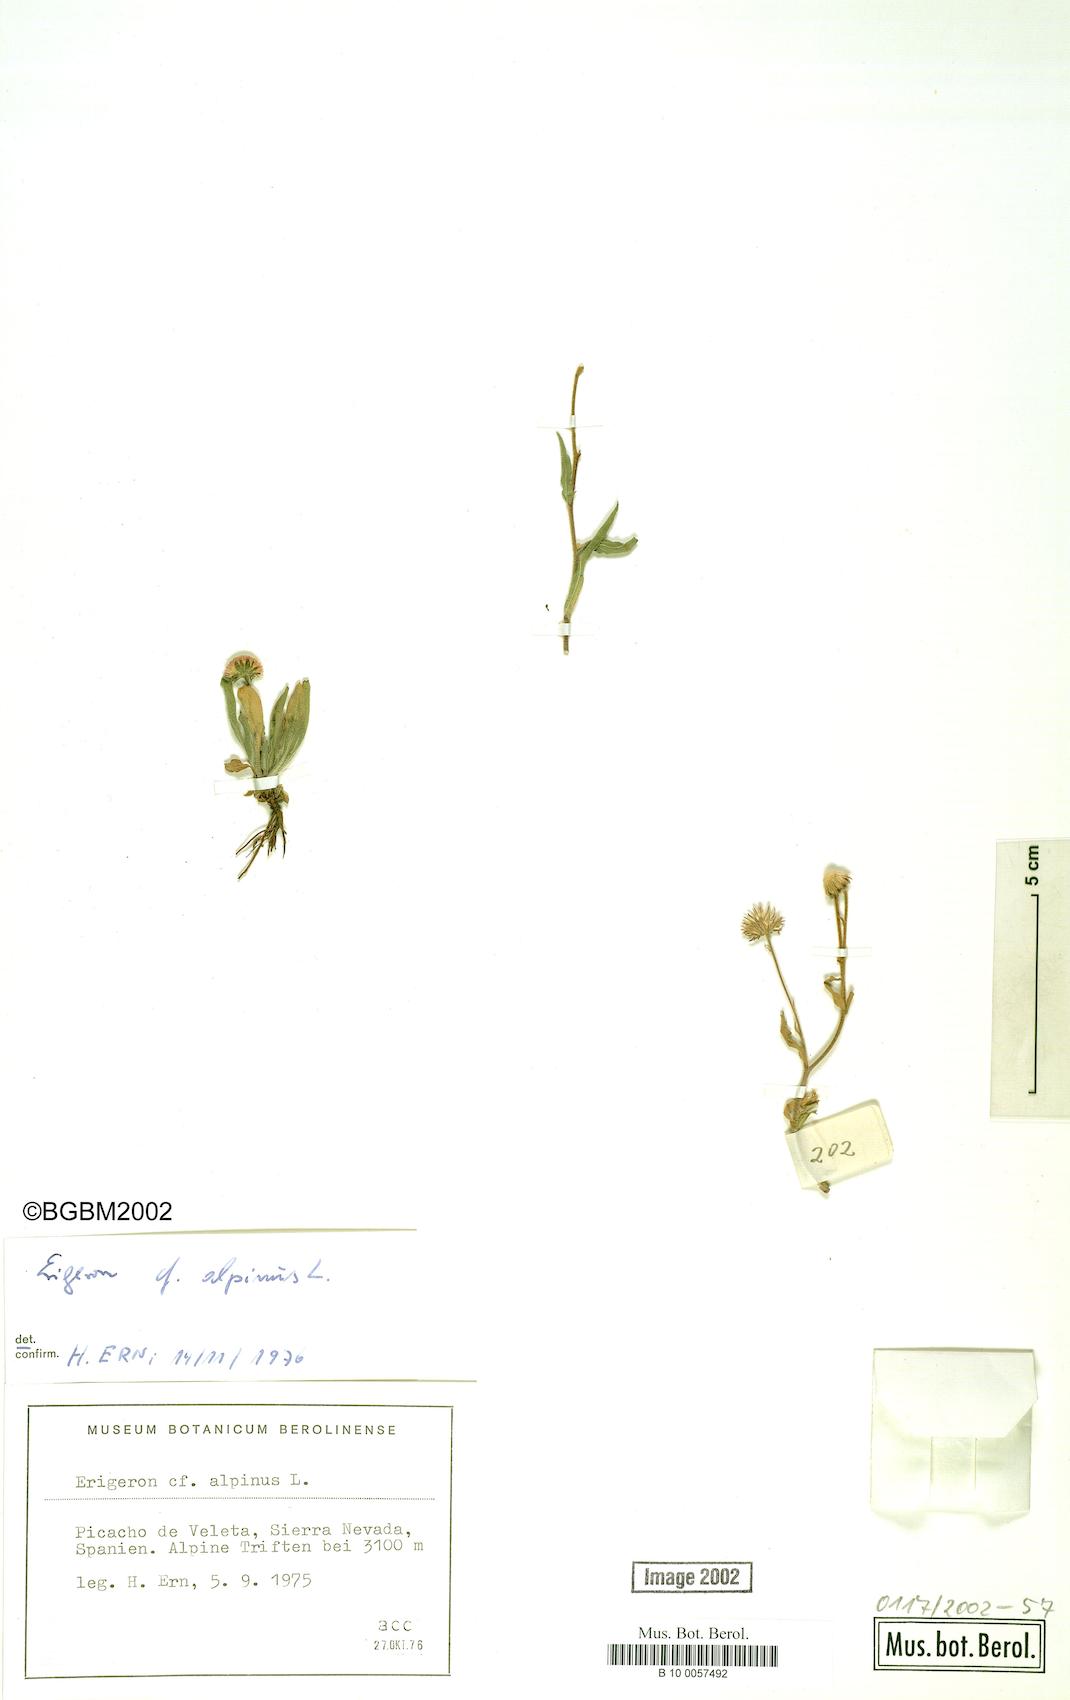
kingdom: Plantae
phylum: Tracheophyta
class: Magnoliopsida
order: Asterales
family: Asteraceae
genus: Erigeron
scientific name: Erigeron alpinus
